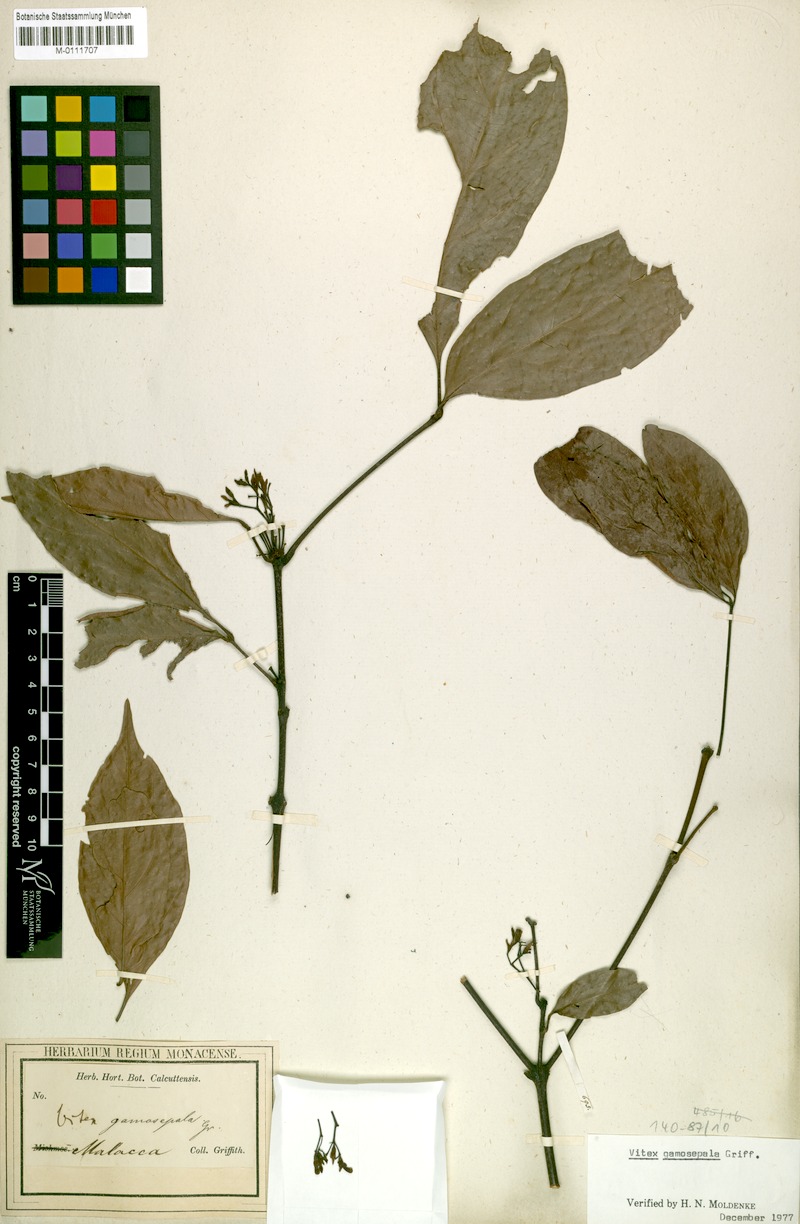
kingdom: Plantae
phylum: Tracheophyta
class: Magnoliopsida
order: Lamiales
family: Lamiaceae
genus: Vitex
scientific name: Vitex gamosepala
